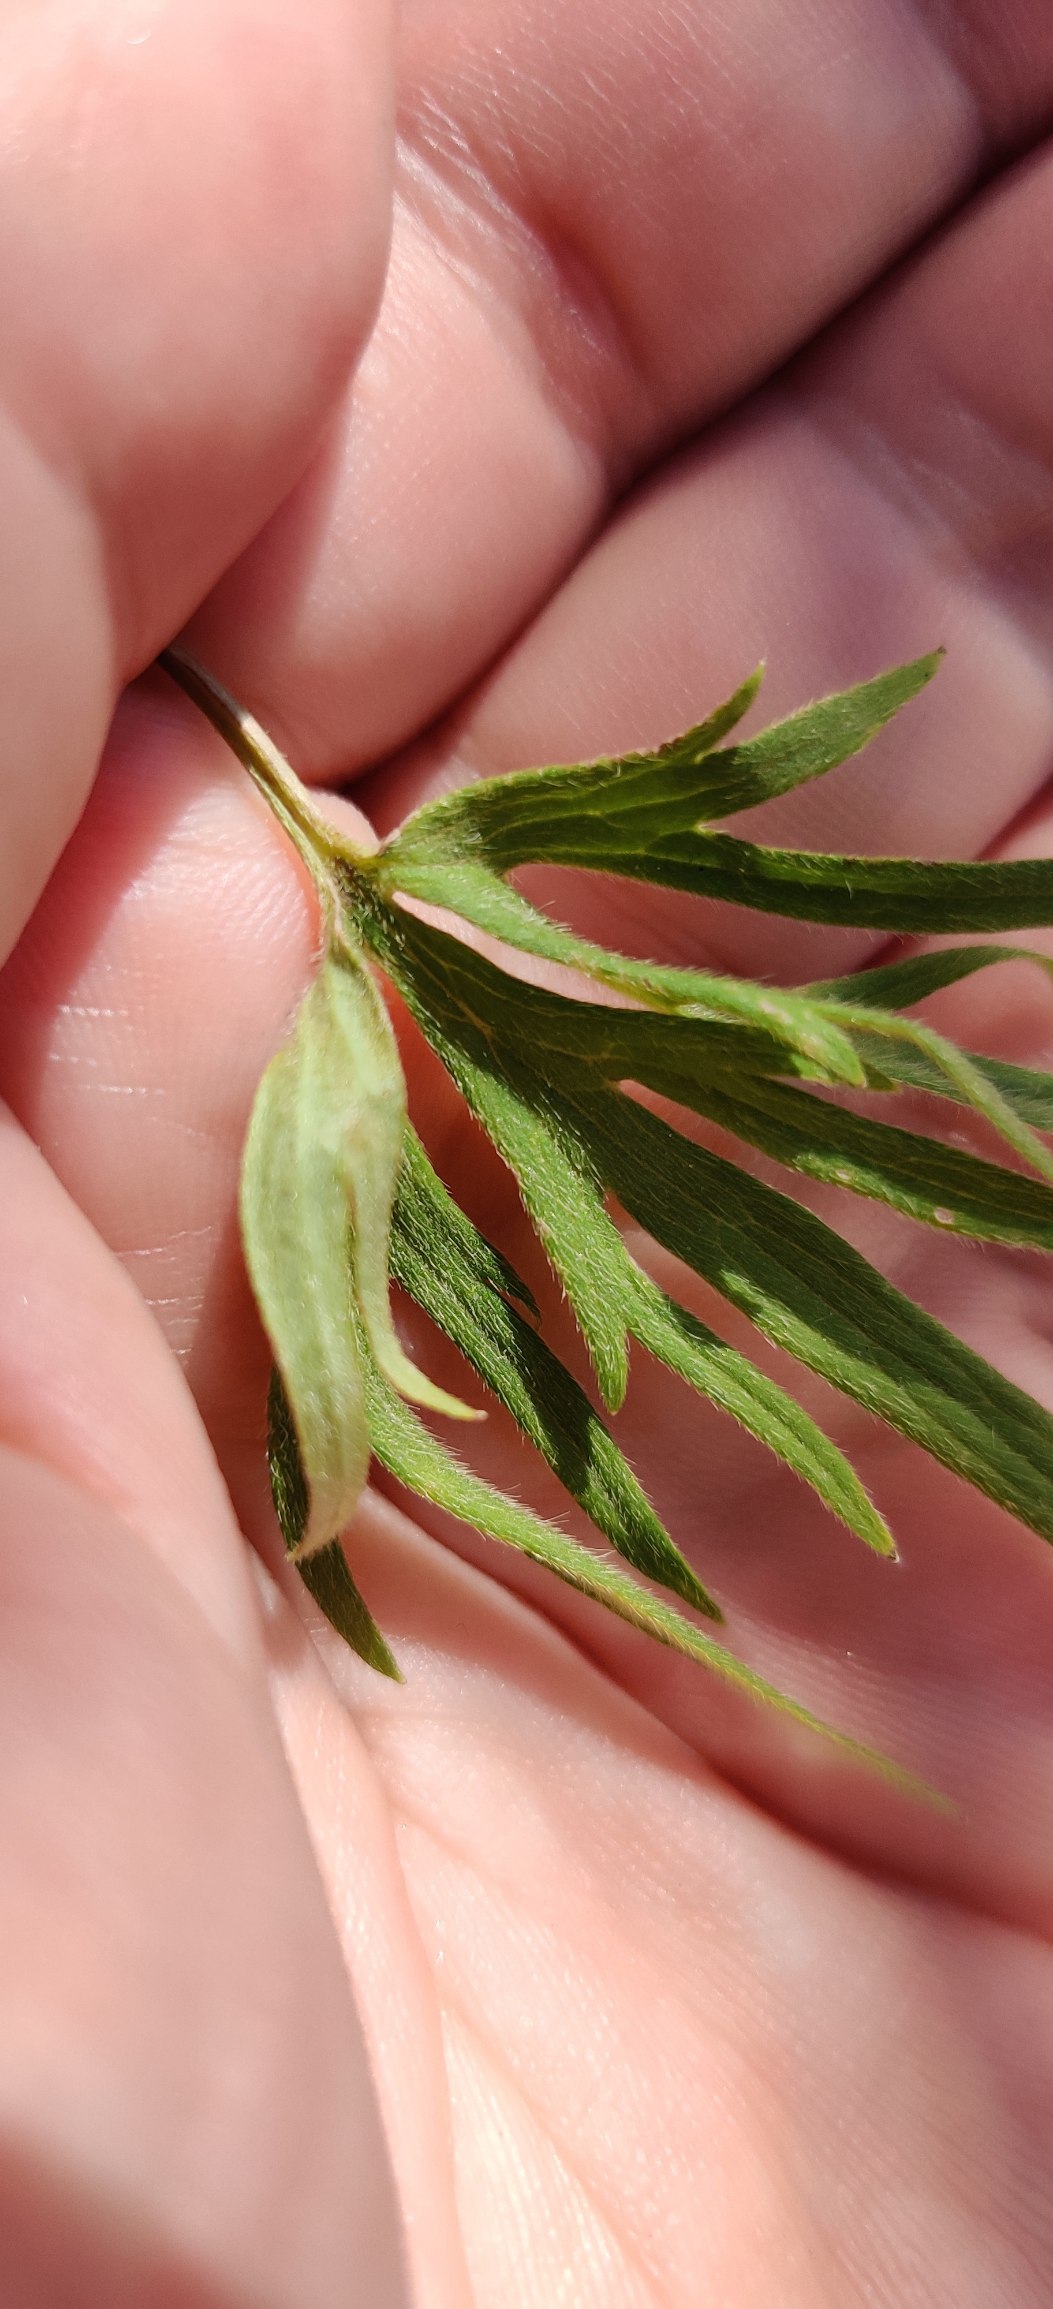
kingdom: Plantae
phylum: Tracheophyta
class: Magnoliopsida
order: Ranunculales
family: Ranunculaceae
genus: Ranunculus
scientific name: Ranunculus acris
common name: Bidende ranunkel
